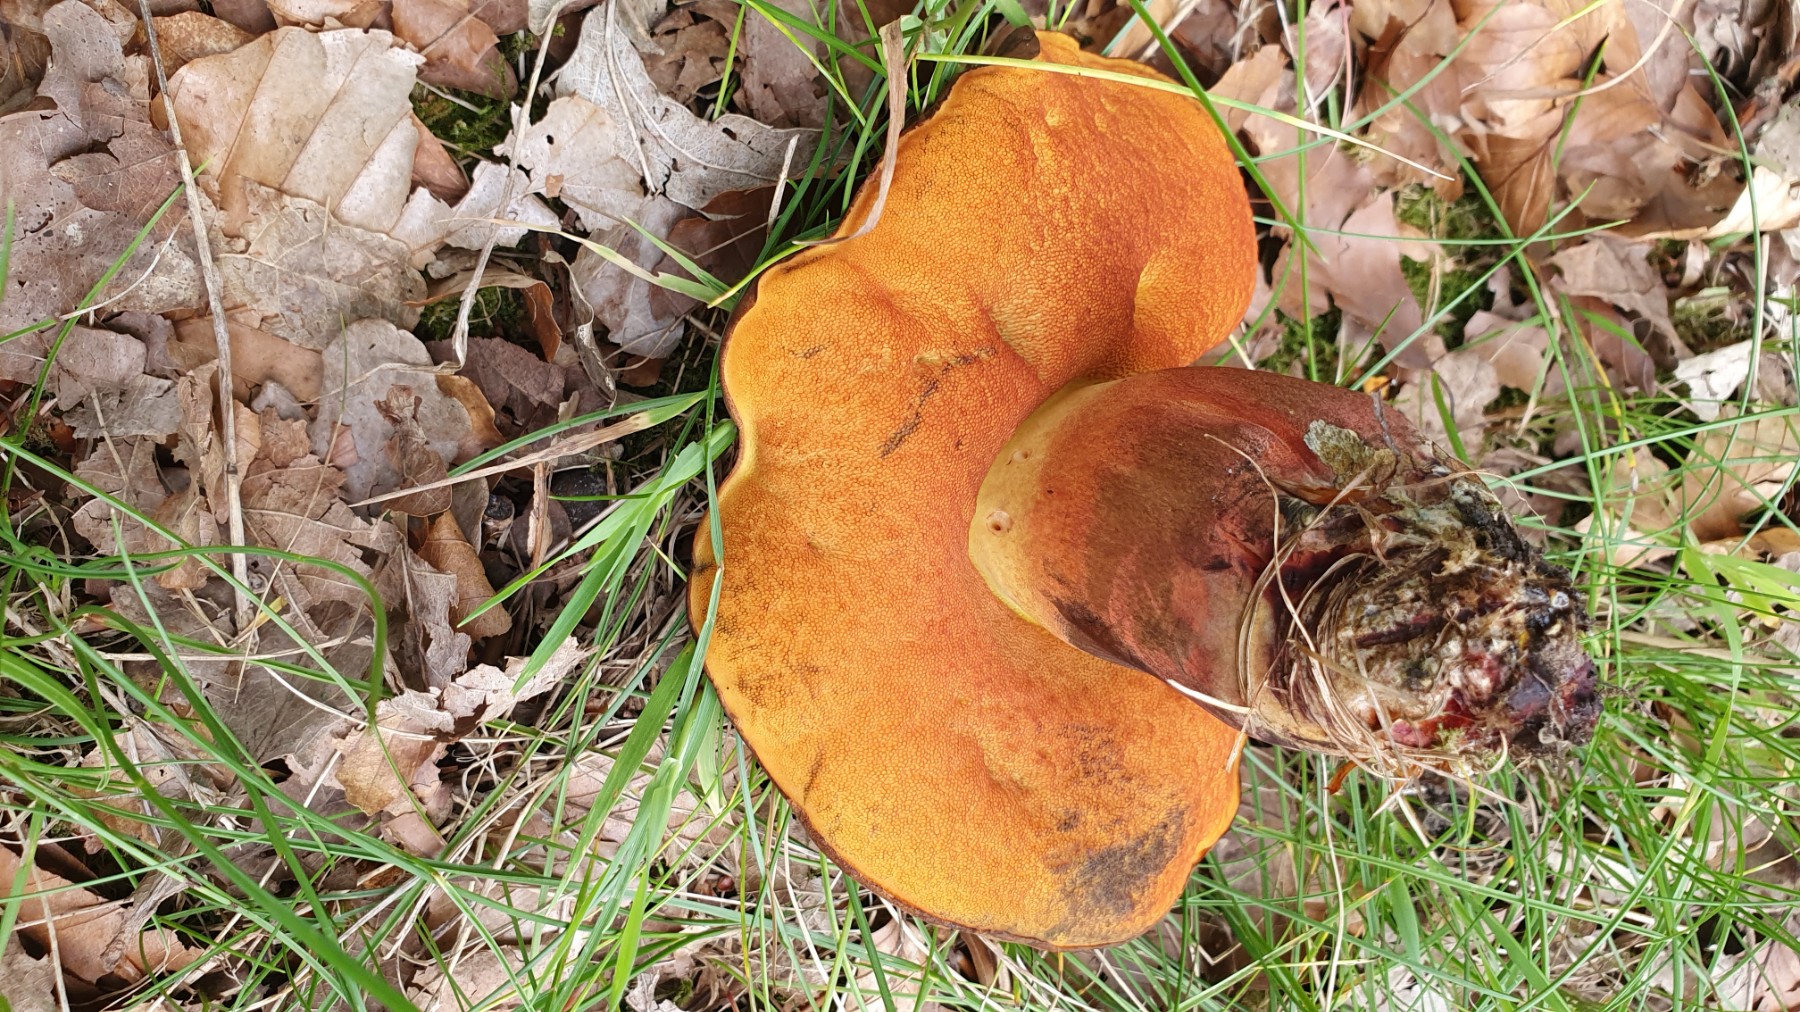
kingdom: Fungi
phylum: Basidiomycota
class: Agaricomycetes
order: Boletales
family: Boletaceae
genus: Neoboletus
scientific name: Neoboletus erythropus
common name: punktstokket indigorørhat
